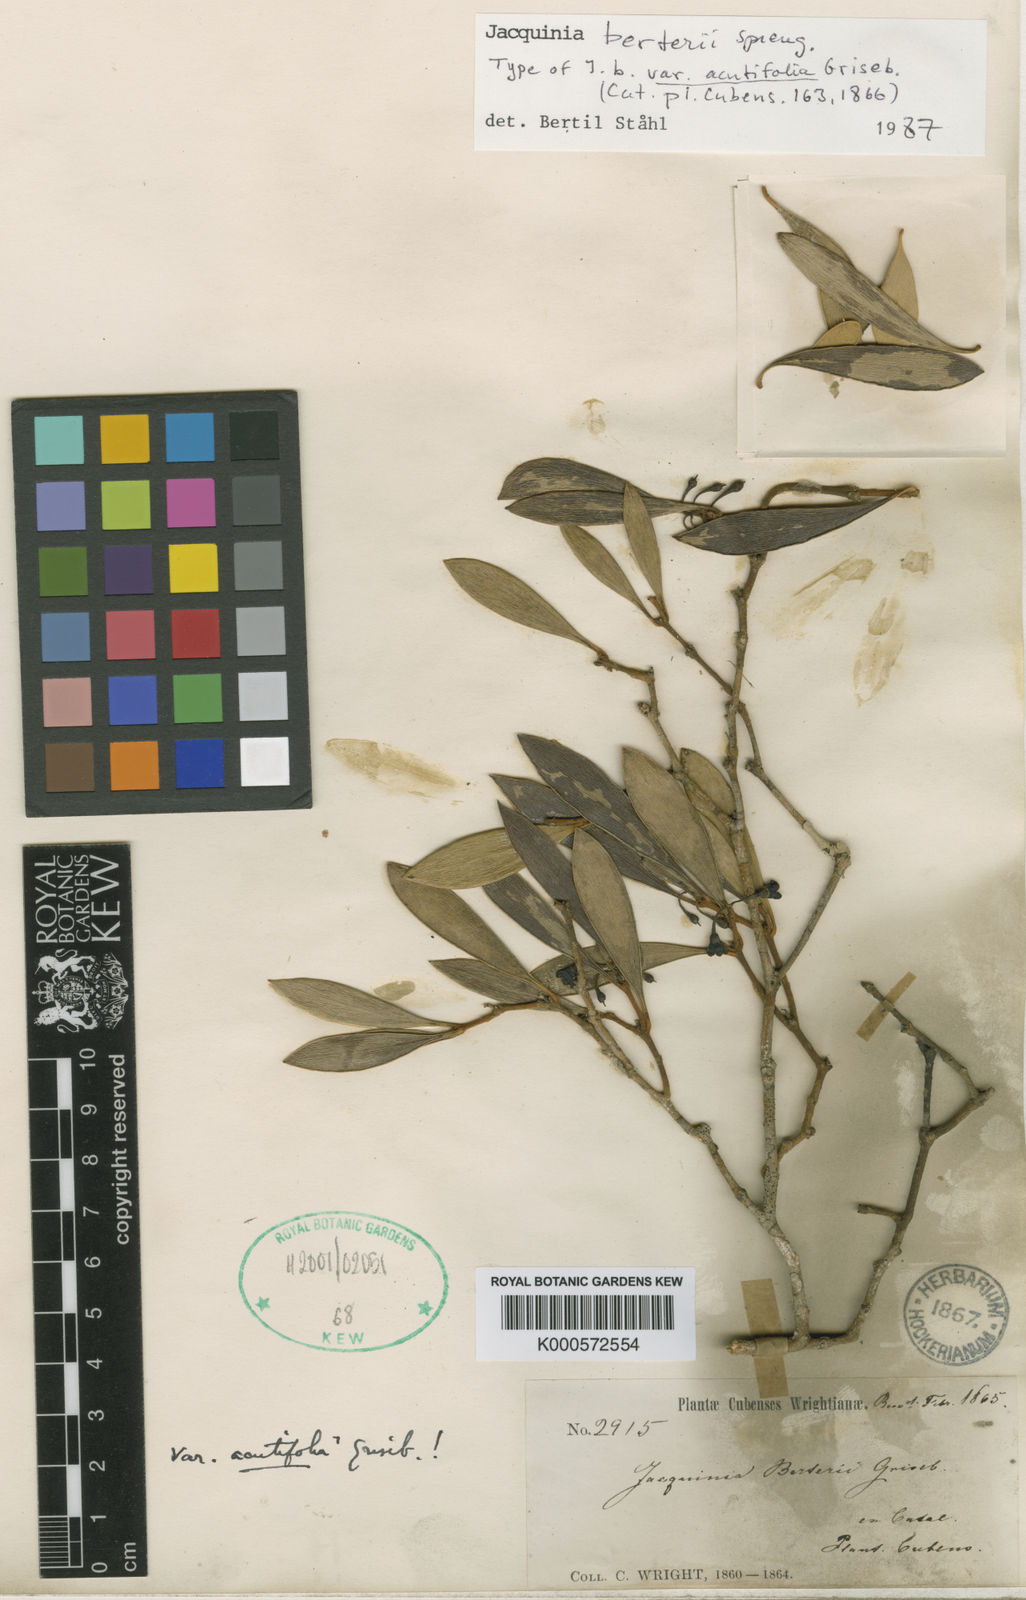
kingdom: Plantae
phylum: Tracheophyta
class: Magnoliopsida
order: Ericales
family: Primulaceae
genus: Jacquinia
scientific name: Jacquinia berteroi
